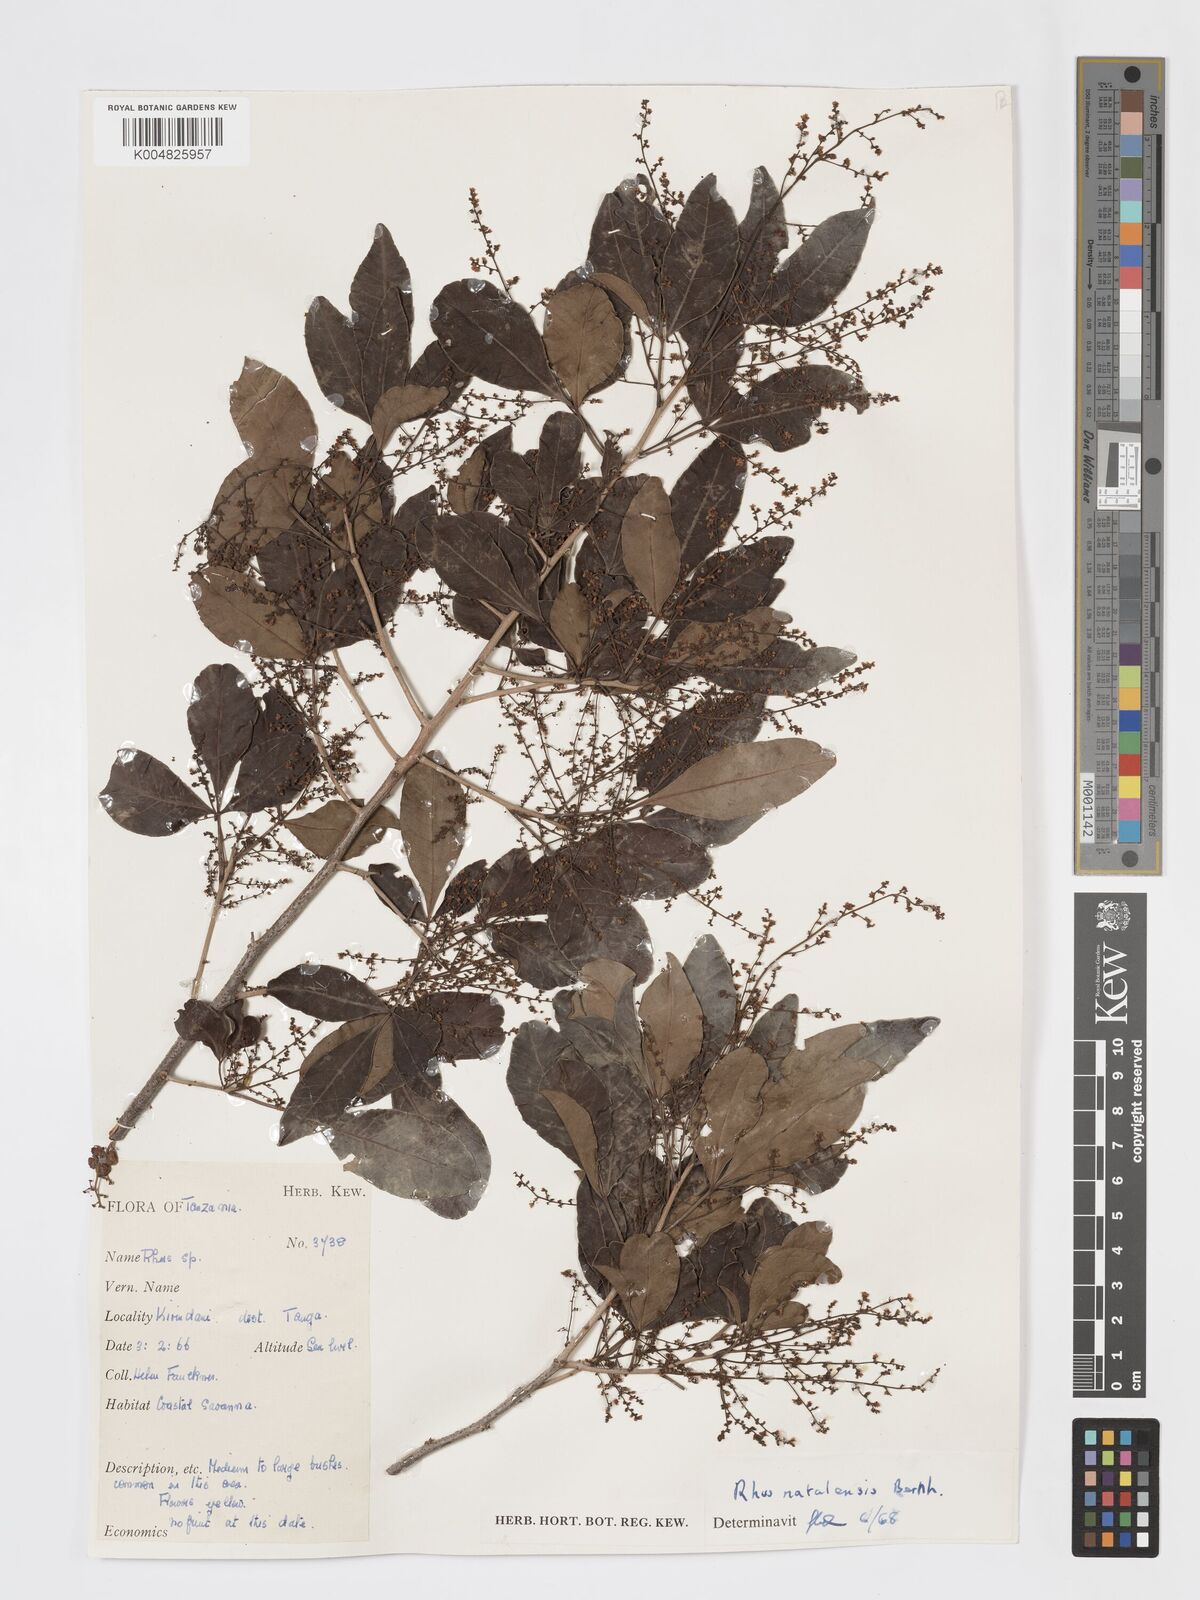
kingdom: Plantae
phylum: Tracheophyta
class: Magnoliopsida
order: Sapindales
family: Anacardiaceae
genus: Searsia
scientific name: Searsia natalensis
